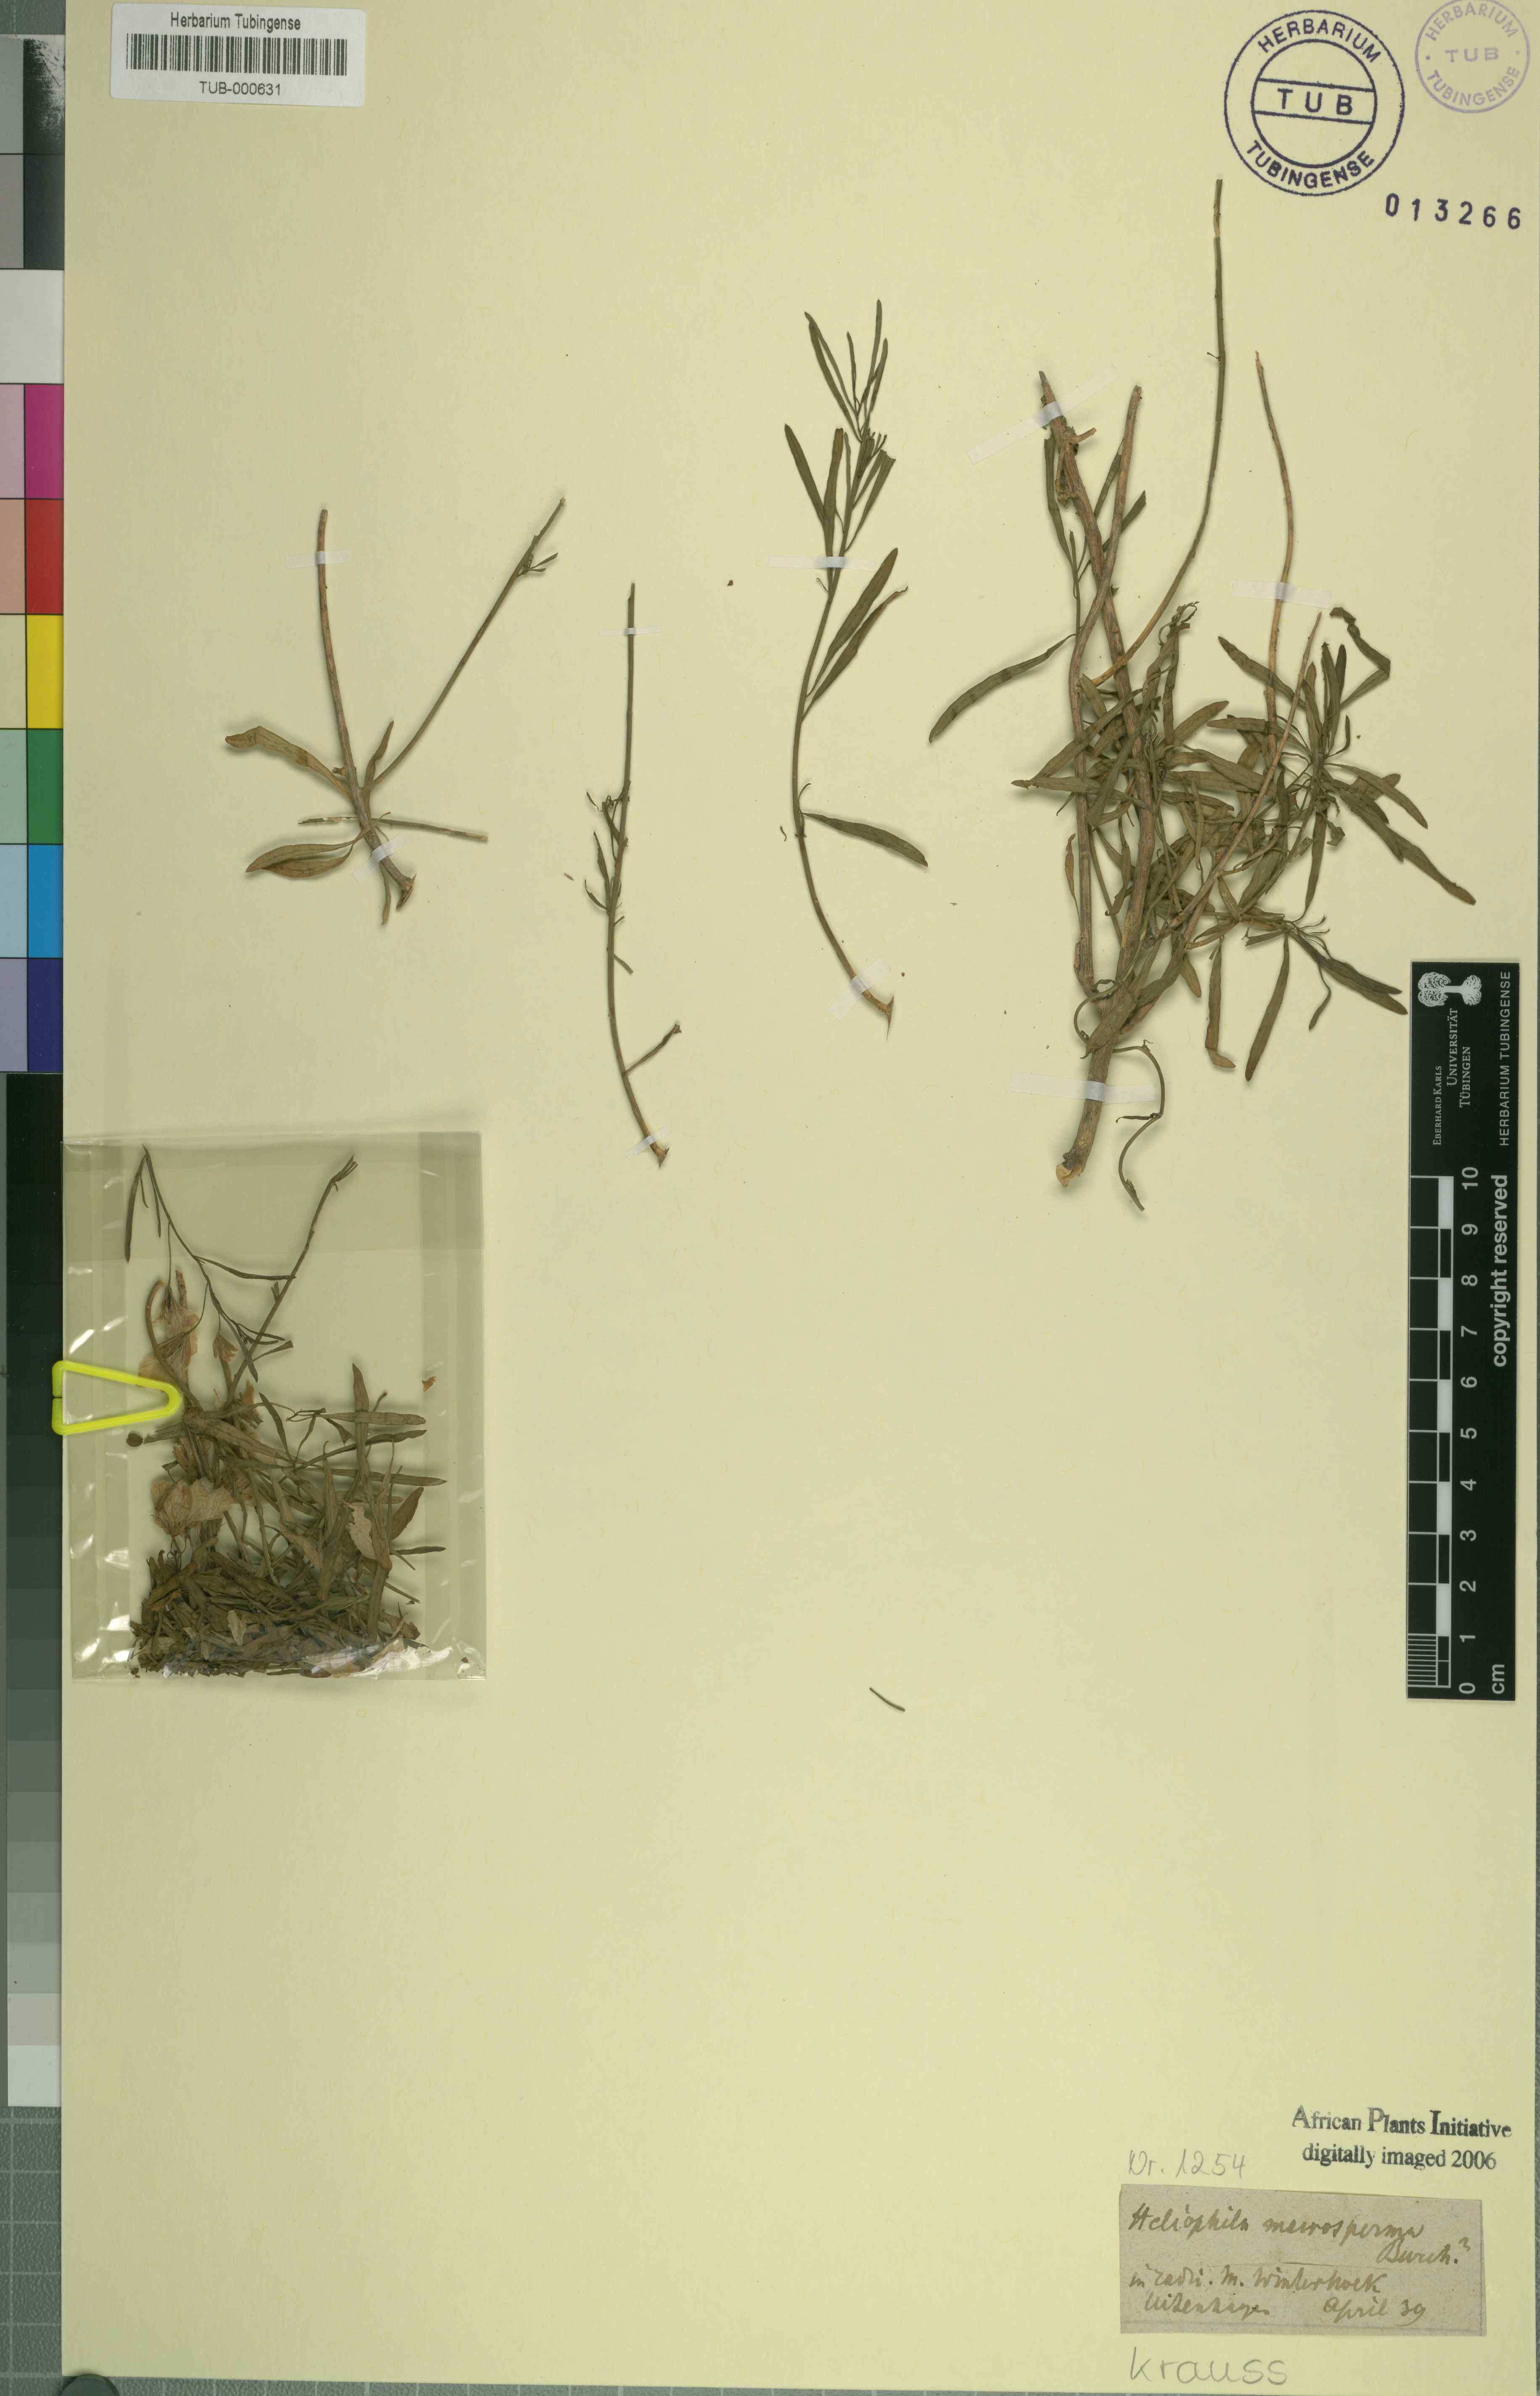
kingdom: Plantae
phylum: Tracheophyta
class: Magnoliopsida
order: Brassicales
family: Brassicaceae
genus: Heliophila
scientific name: Heliophila macrosperma
